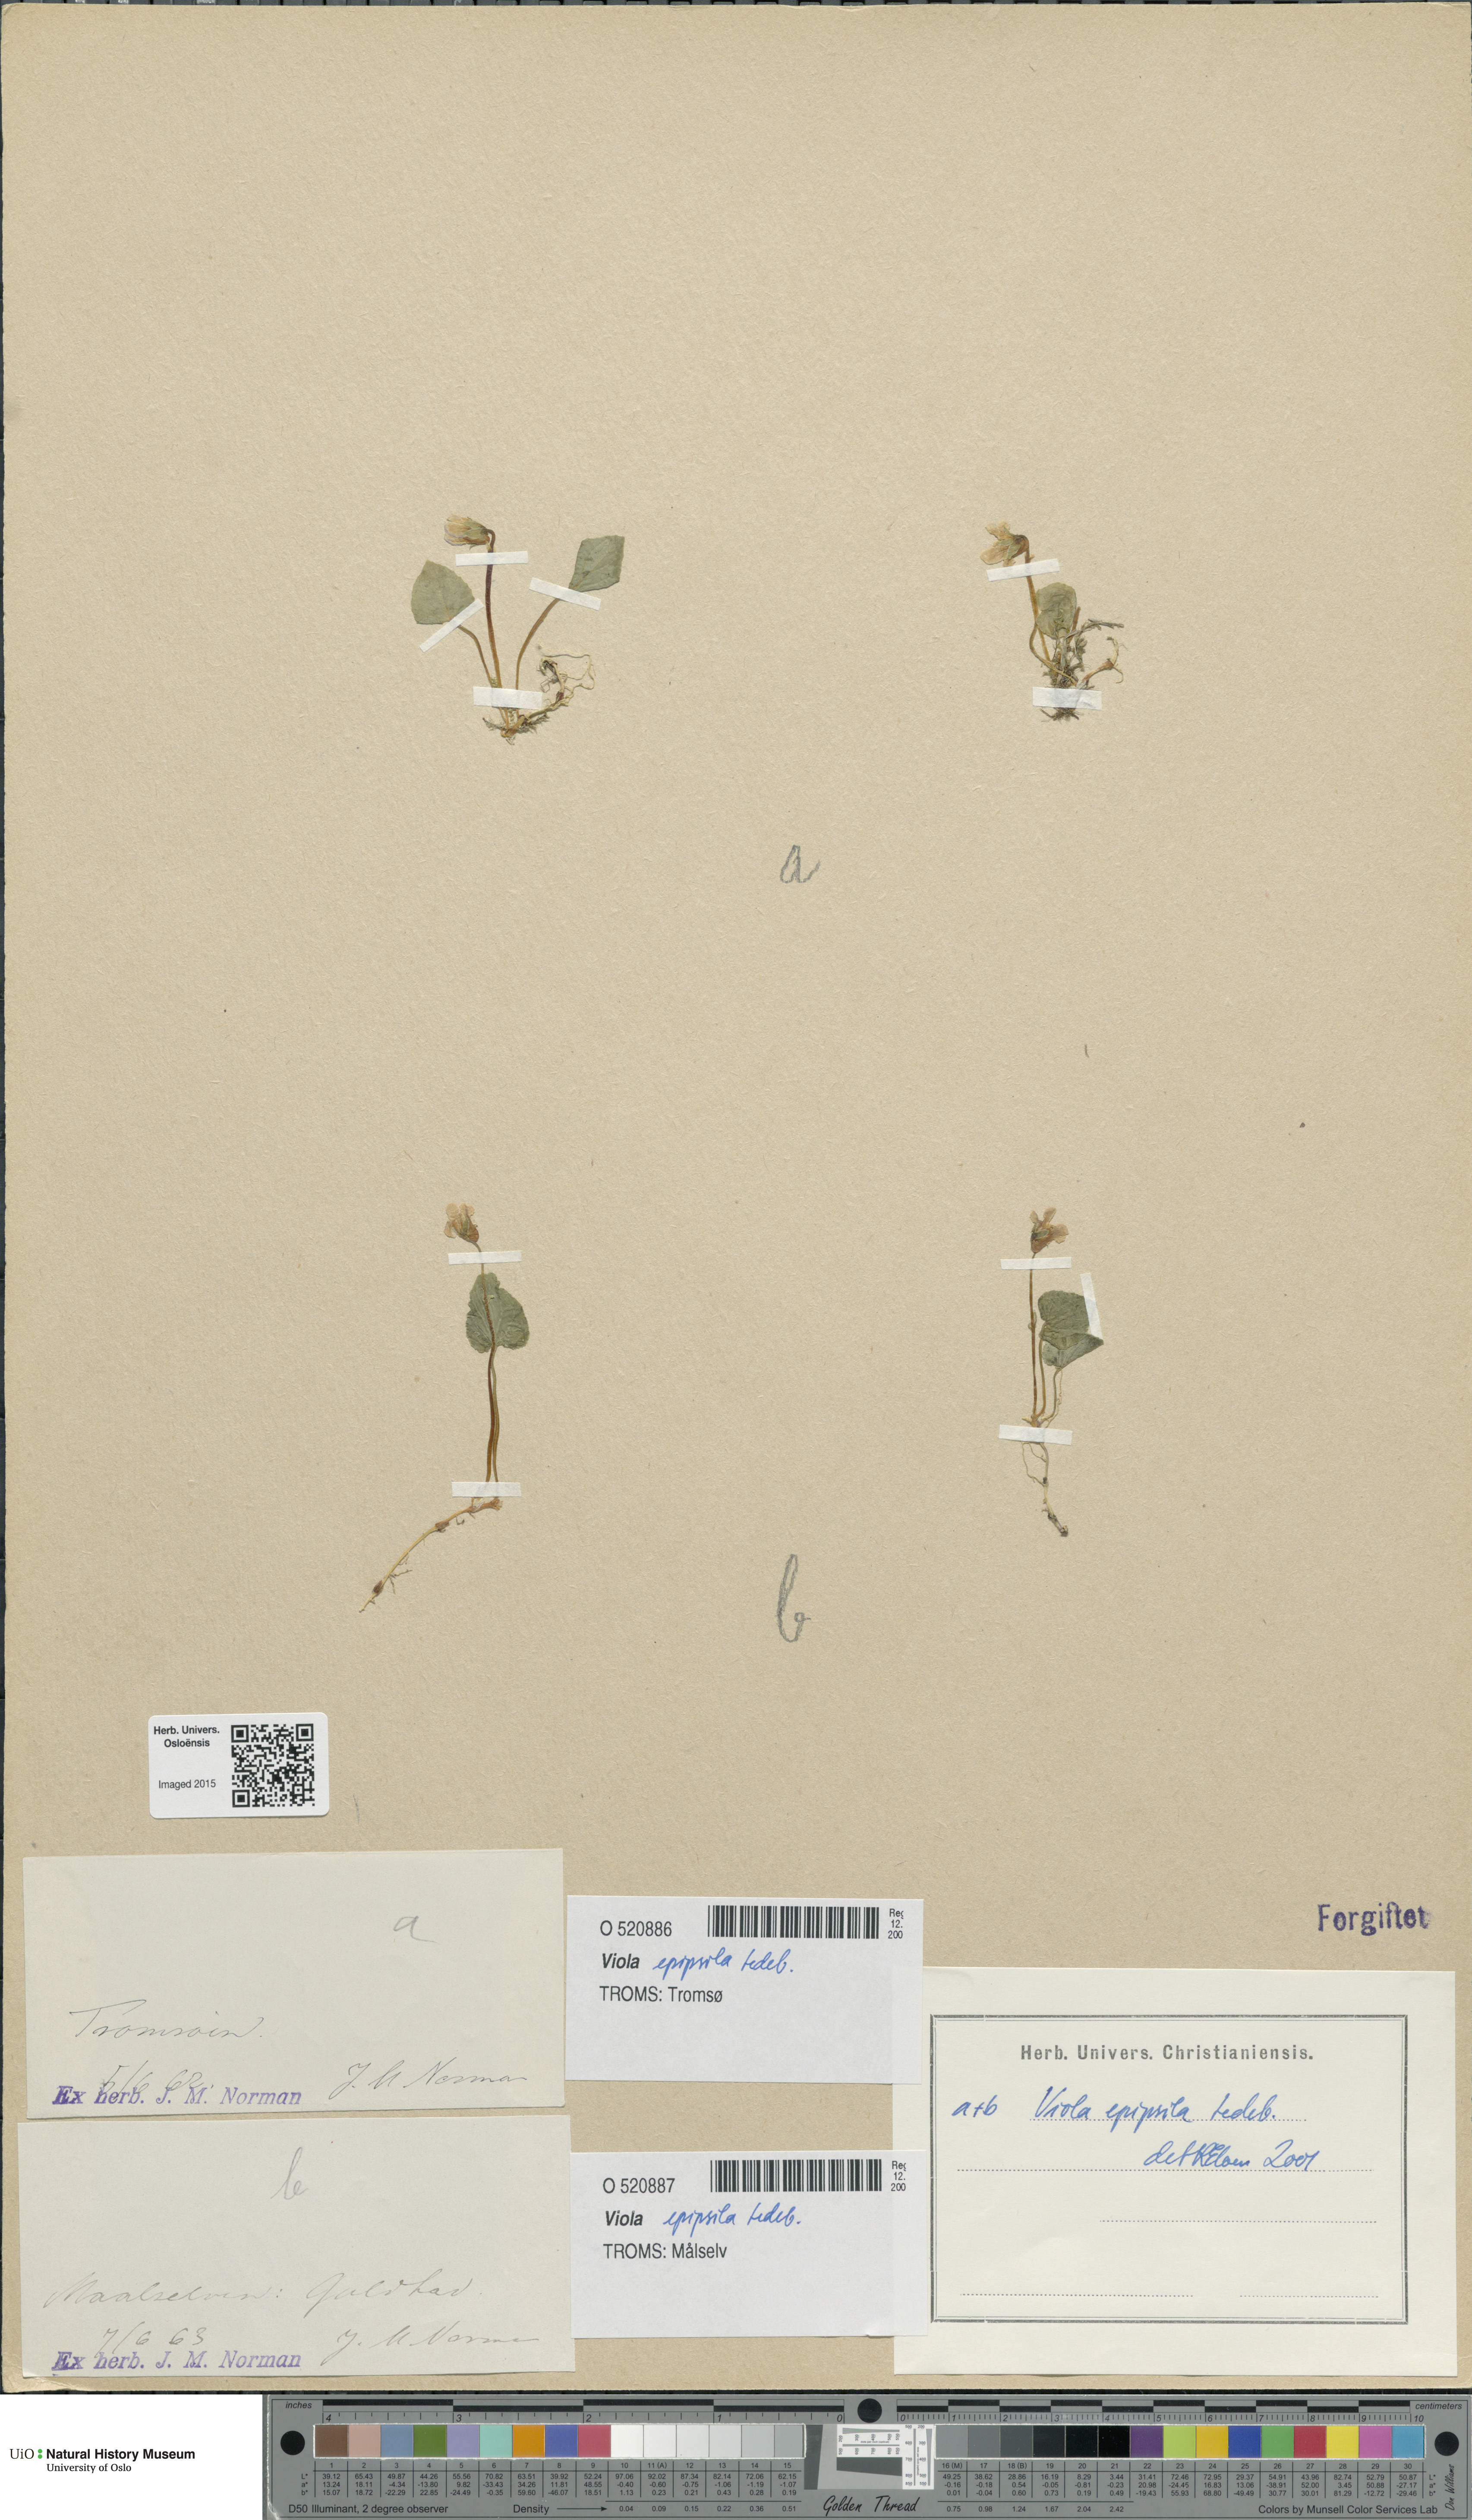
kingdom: Plantae
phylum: Tracheophyta
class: Magnoliopsida
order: Malpighiales
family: Violaceae
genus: Viola
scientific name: Viola epipsila
